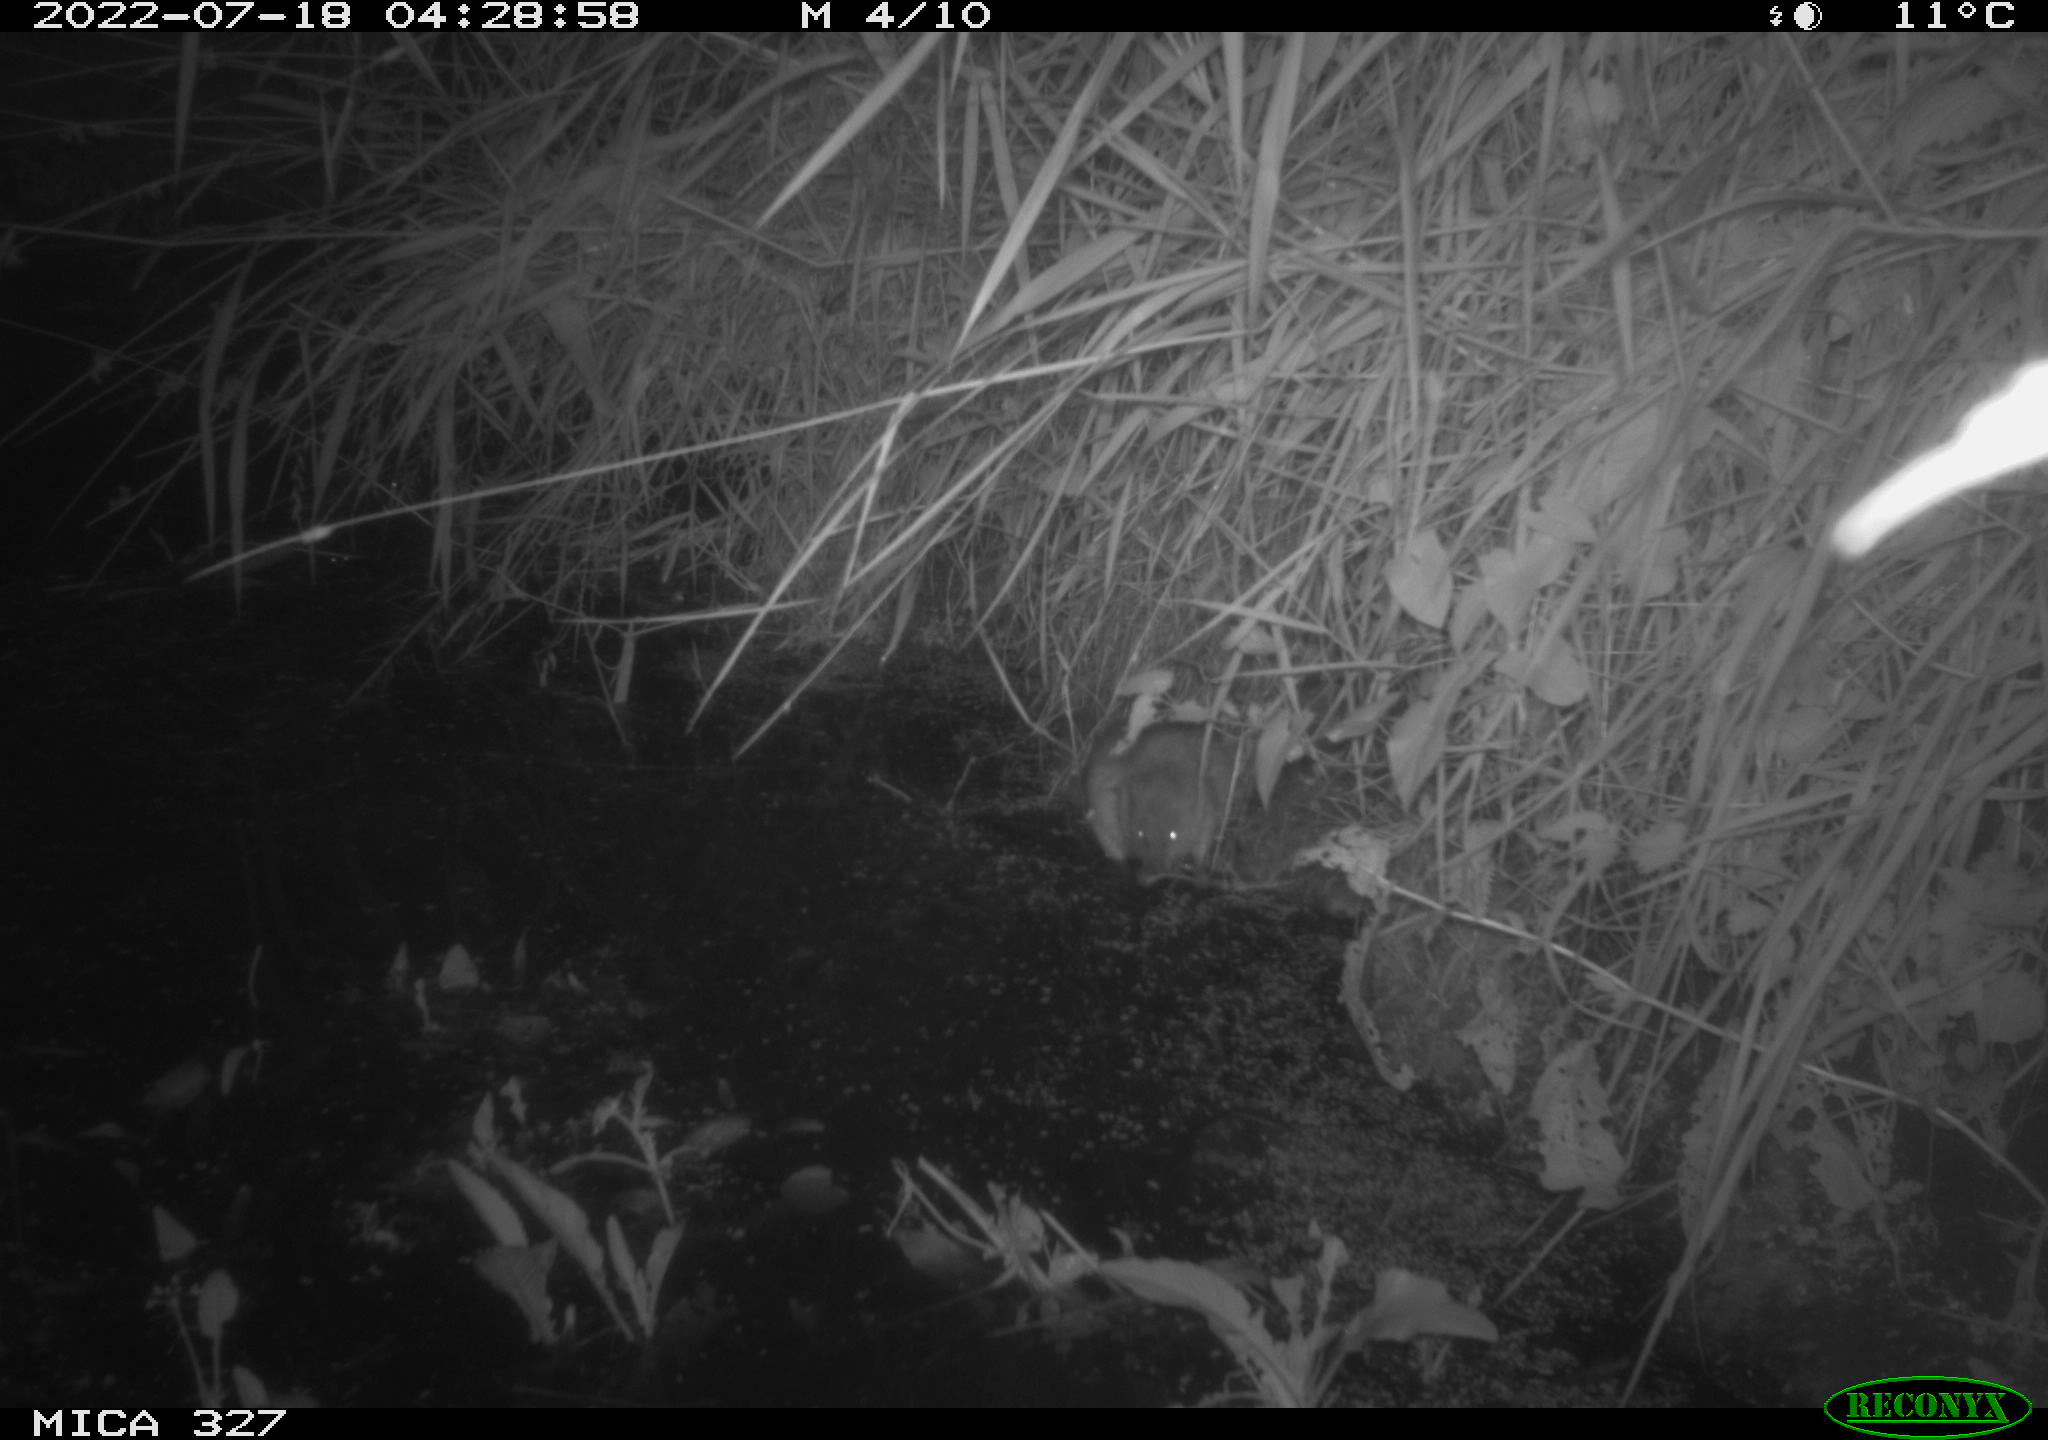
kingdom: Animalia
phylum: Chordata
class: Mammalia
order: Rodentia
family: Cricetidae
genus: Ondatra
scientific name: Ondatra zibethicus
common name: Muskrat
